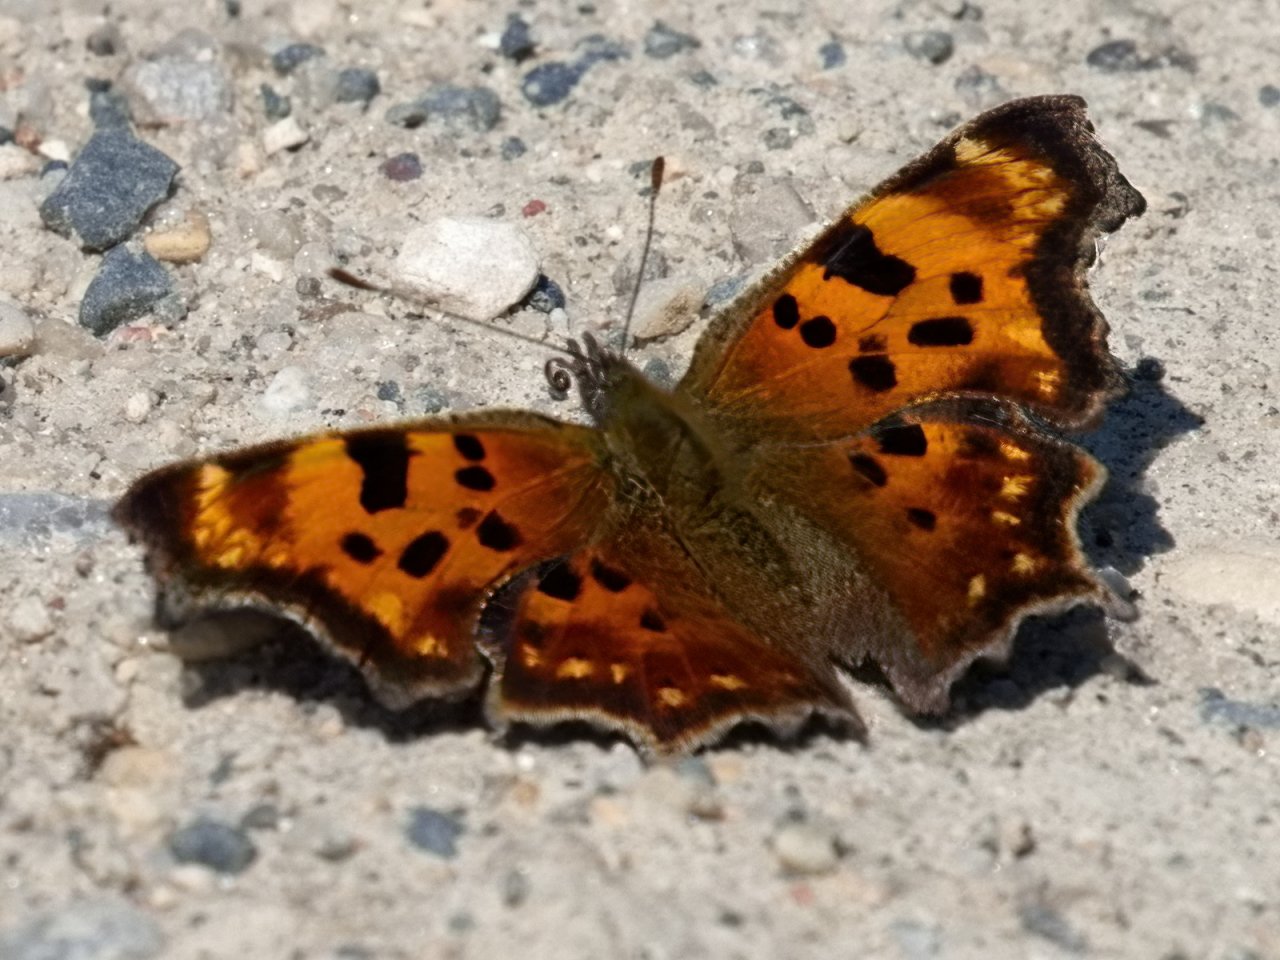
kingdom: Animalia
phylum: Arthropoda
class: Insecta
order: Lepidoptera
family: Nymphalidae
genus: Polygonia
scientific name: Polygonia faunus
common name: Green Comma
